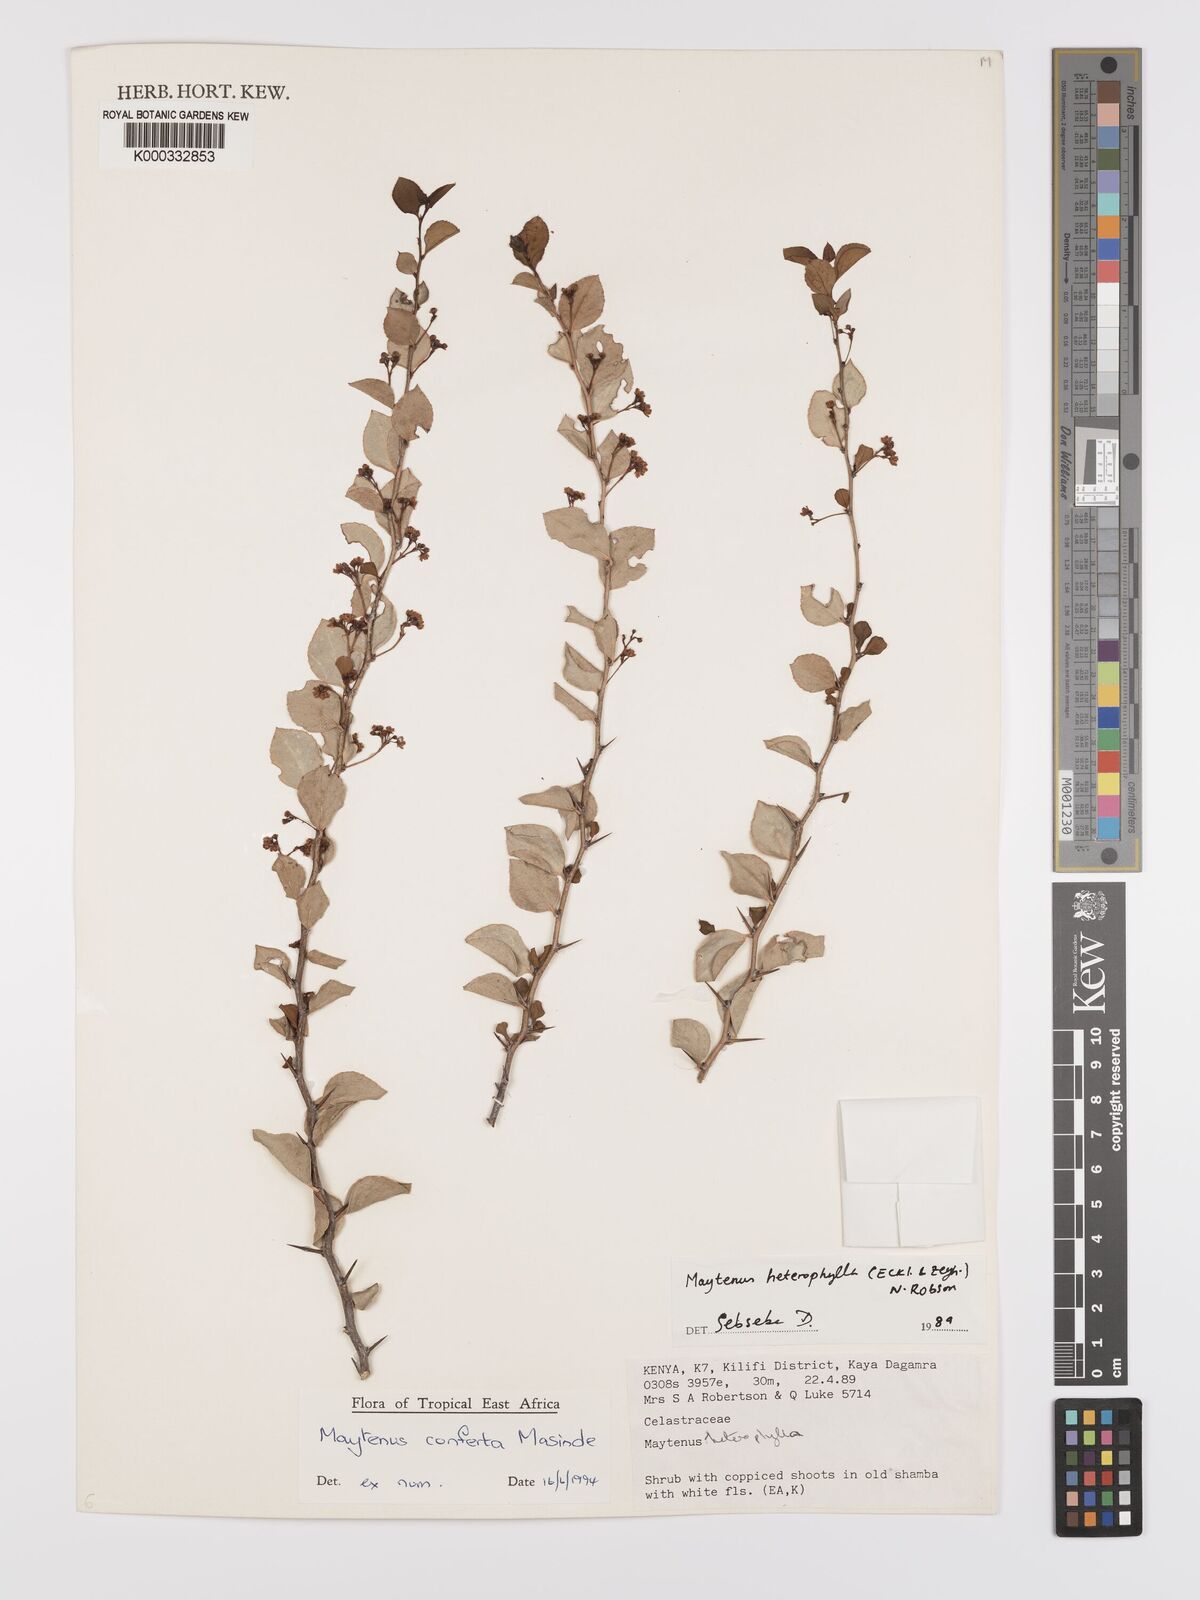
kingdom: Plantae
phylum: Tracheophyta
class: Magnoliopsida
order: Celastrales
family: Celastraceae
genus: Maytenus
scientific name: Maytenus conferta
